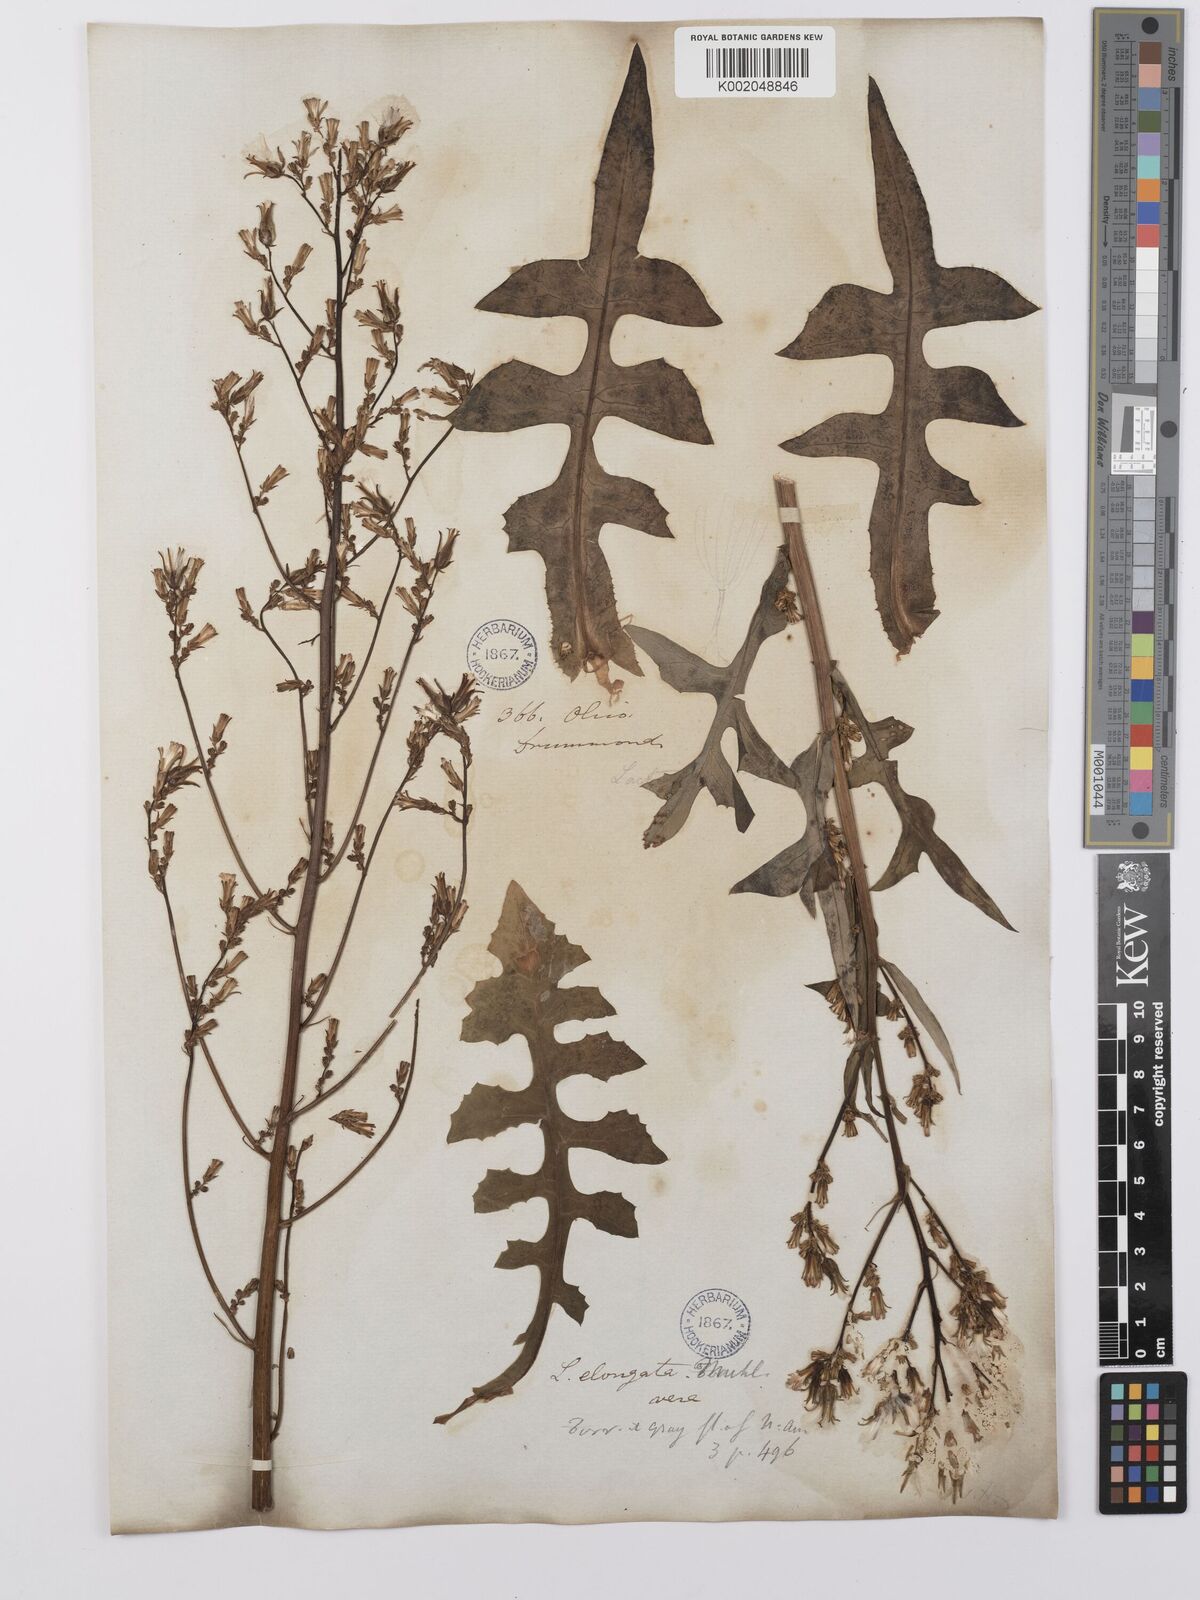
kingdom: Plantae
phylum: Tracheophyta
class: Magnoliopsida
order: Asterales
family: Asteraceae
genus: Lactuca
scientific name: Lactuca canadensis
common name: Canada lettuce
